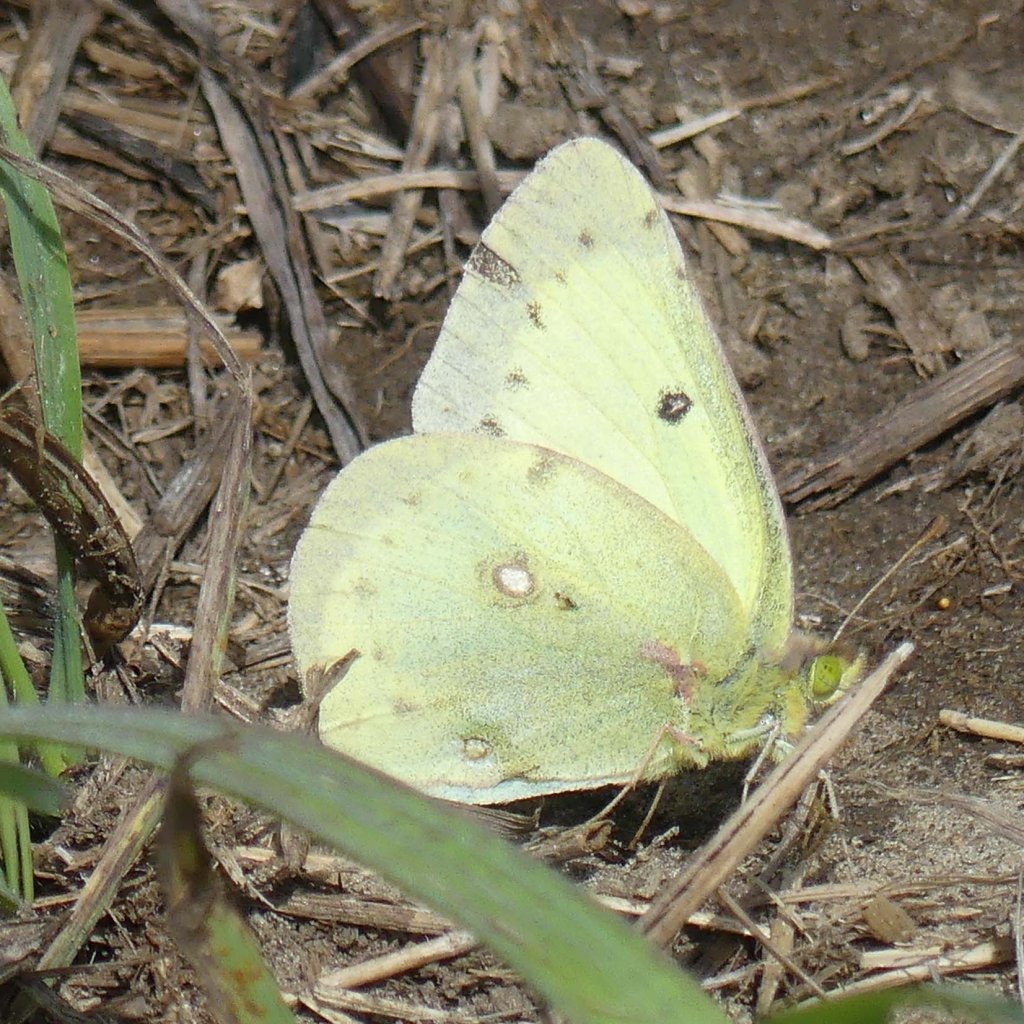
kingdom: Animalia
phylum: Arthropoda
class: Insecta
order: Lepidoptera
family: Pieridae
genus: Colias
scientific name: Colias philodice
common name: Clouded Sulphur
